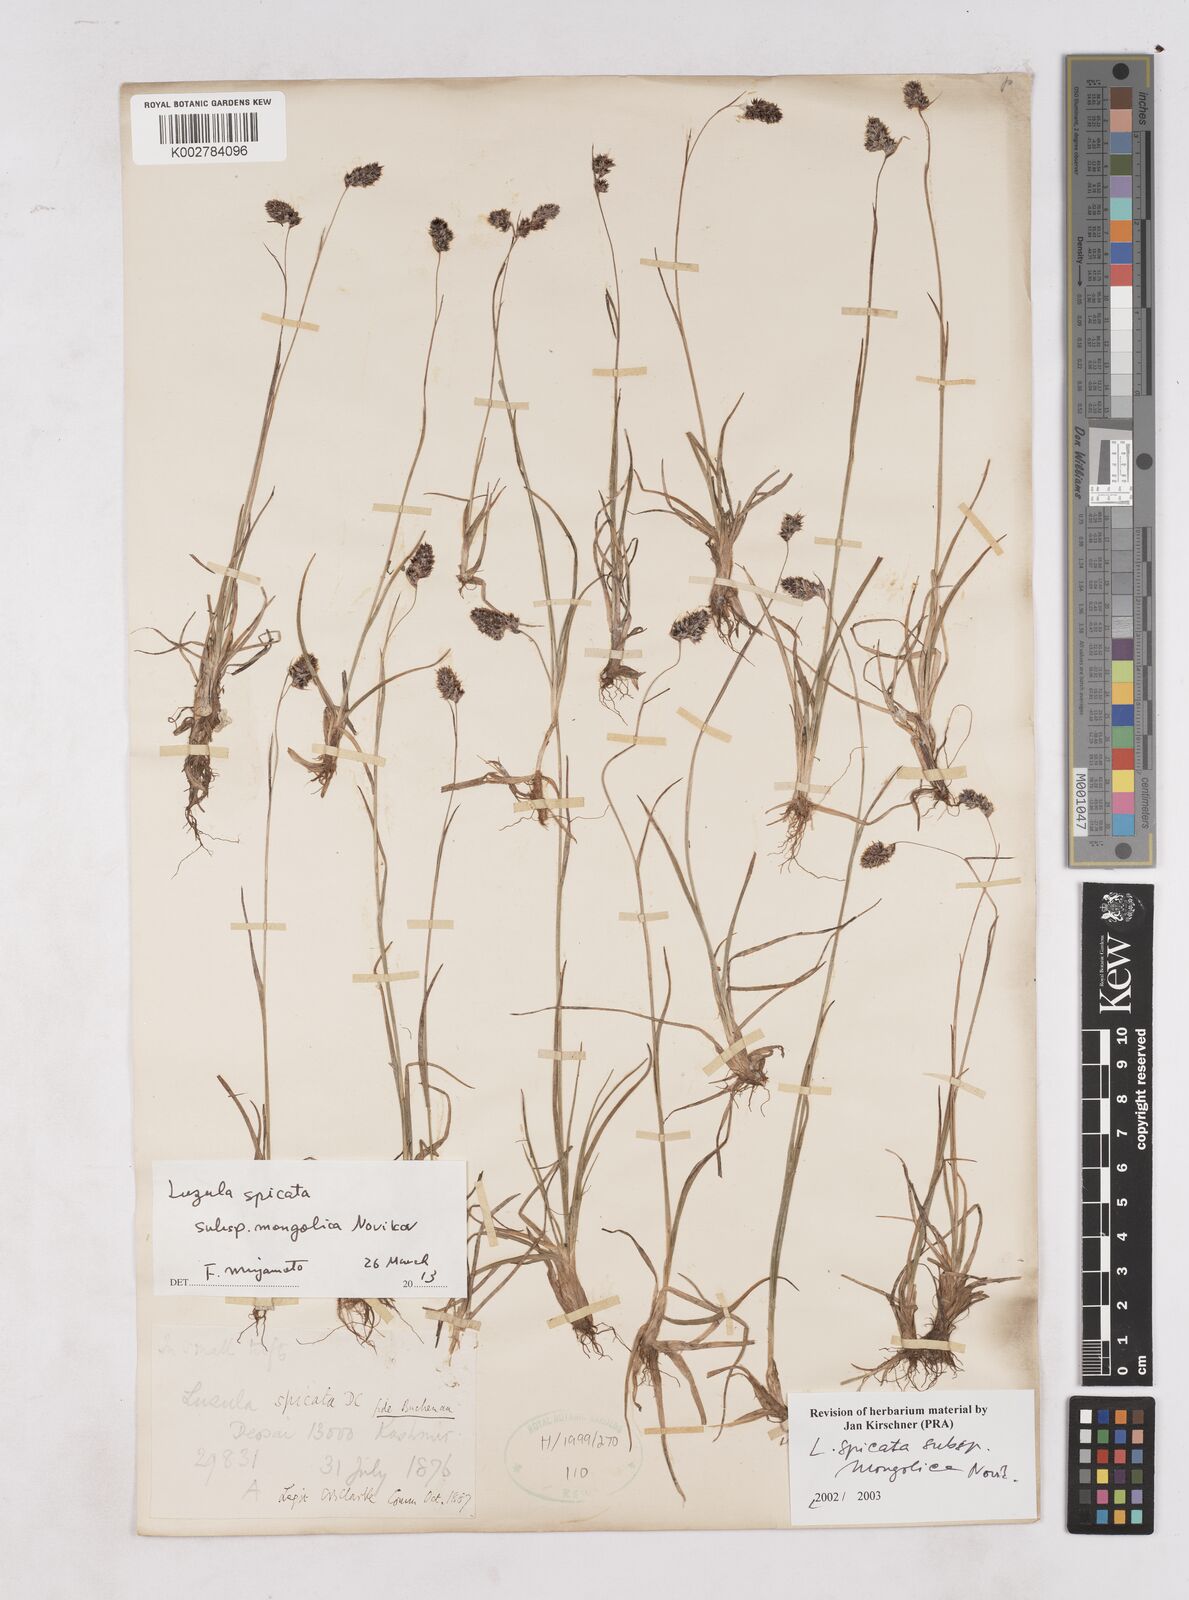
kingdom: Plantae
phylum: Tracheophyta
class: Liliopsida
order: Poales
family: Juncaceae
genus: Luzula
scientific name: Luzula spicata
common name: Spiked wood-rush
